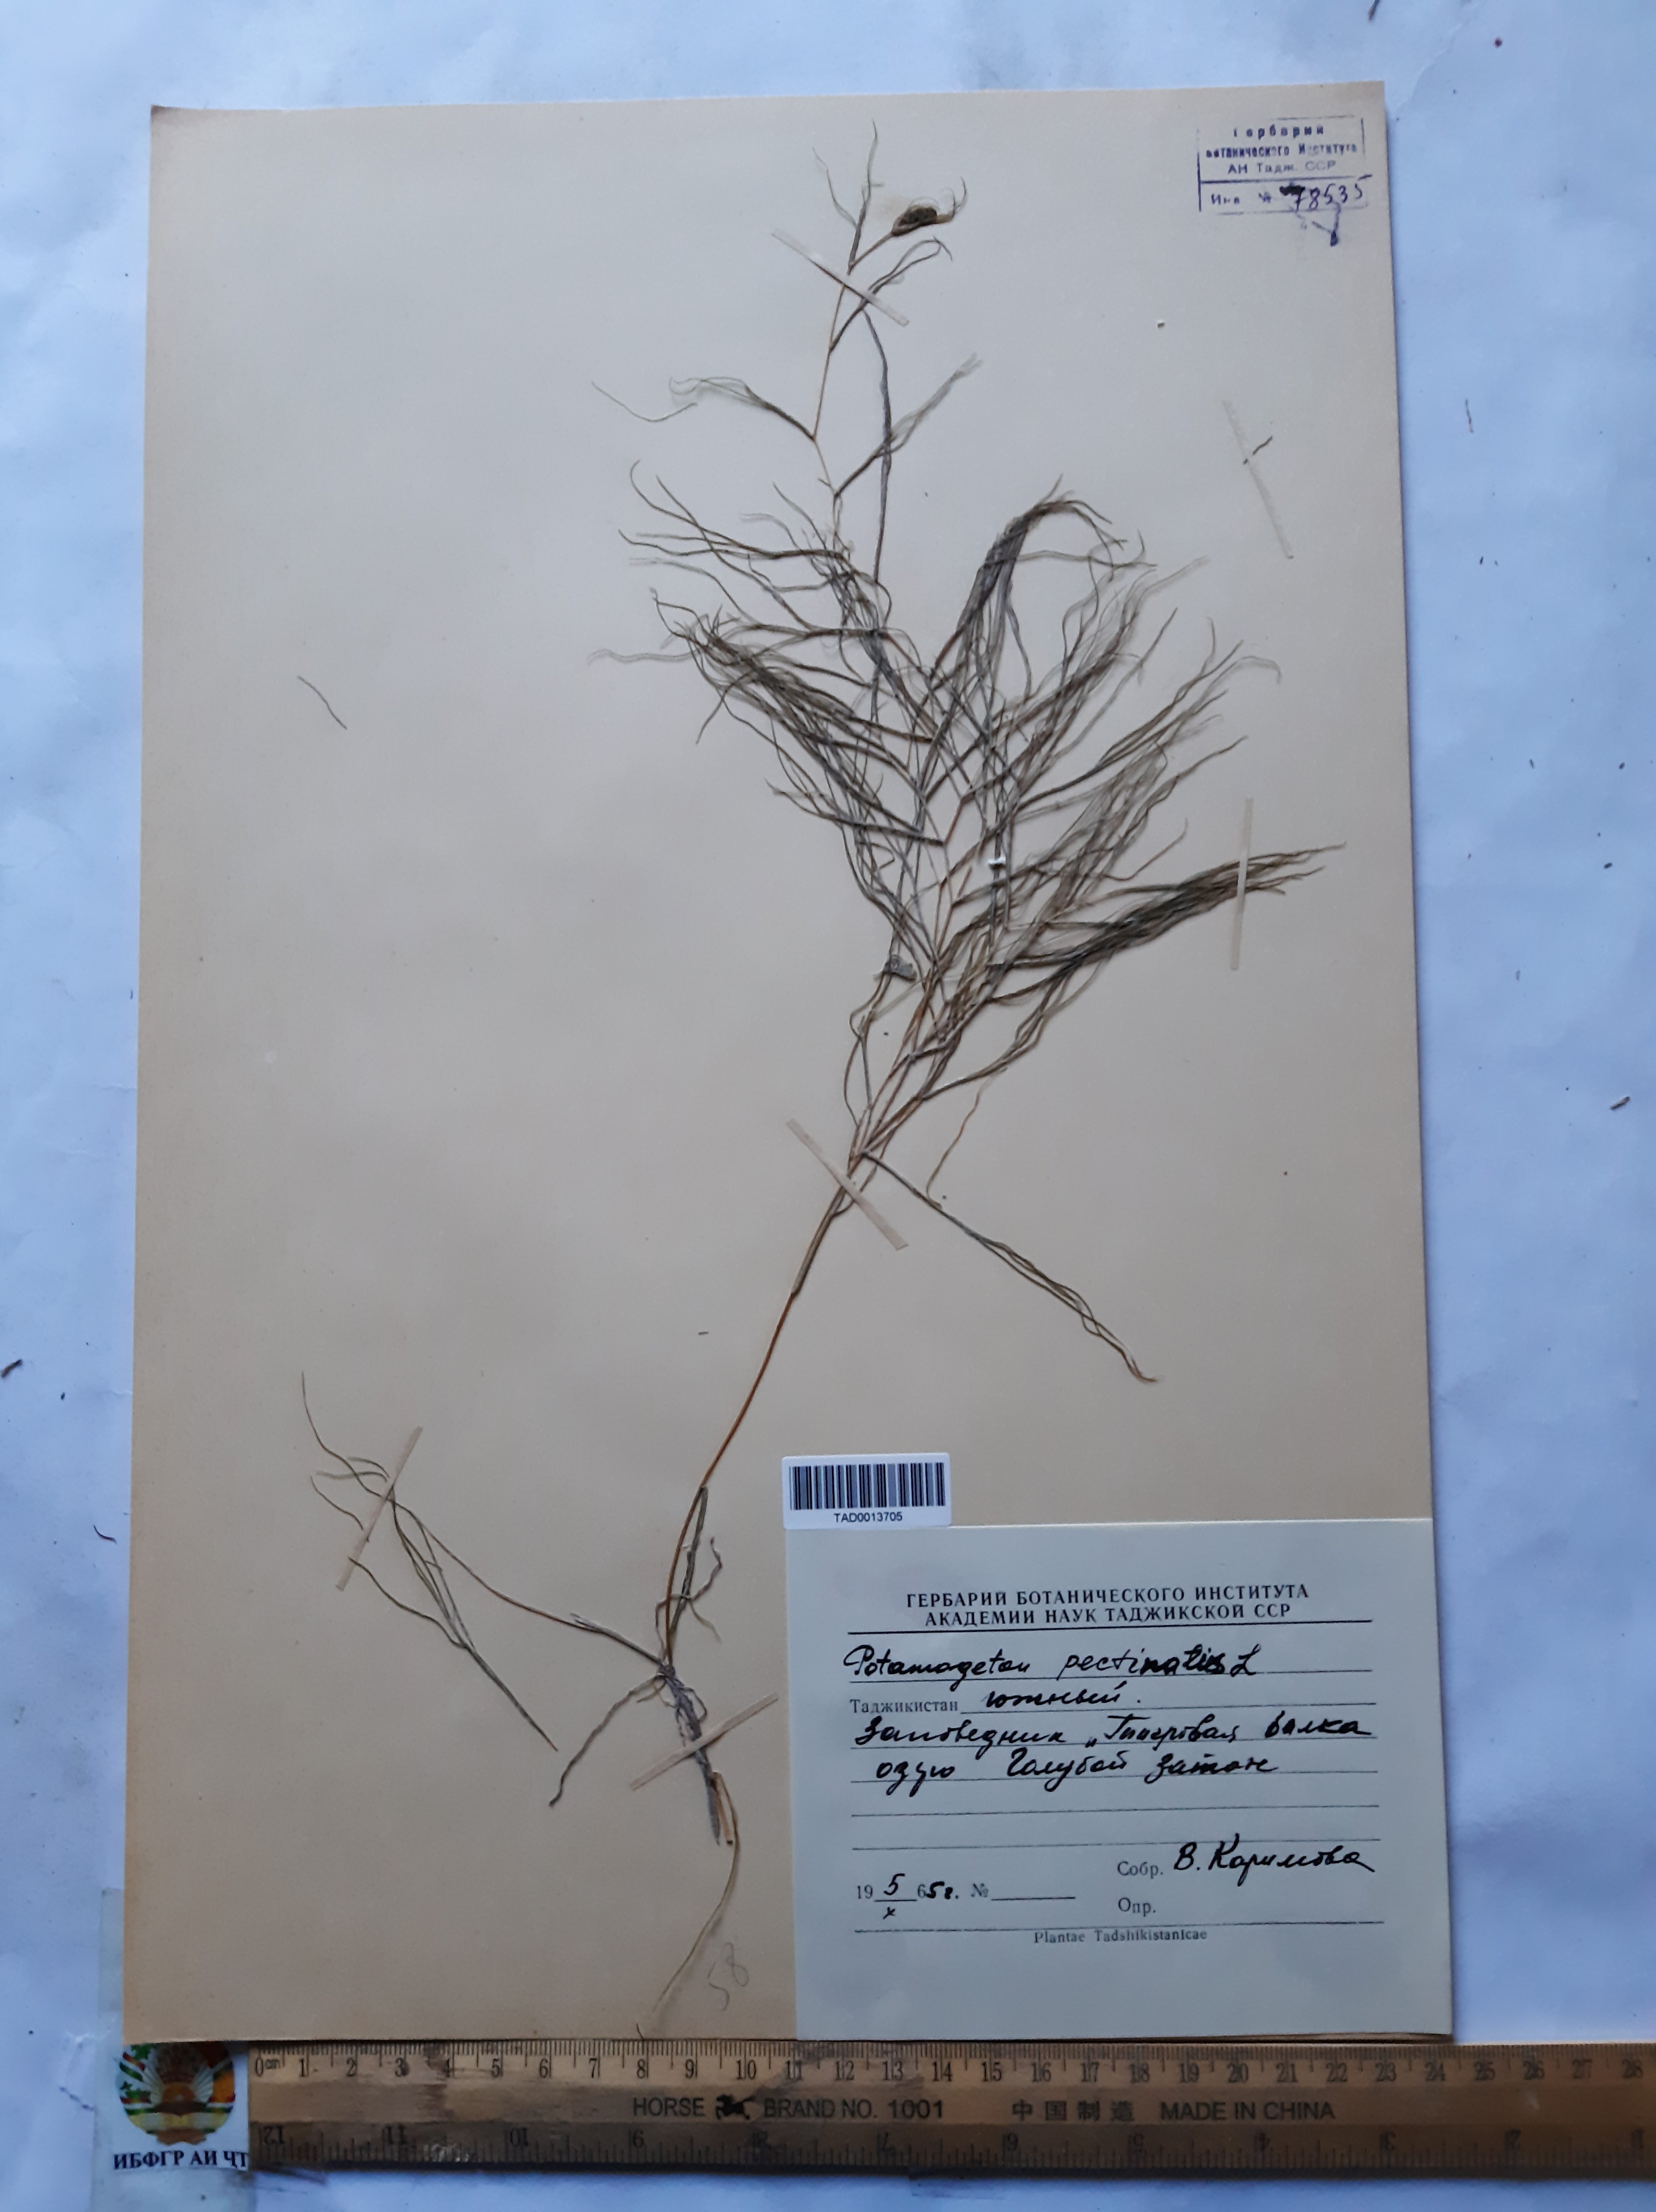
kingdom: Plantae
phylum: Tracheophyta
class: Liliopsida
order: Alismatales
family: Potamogetonaceae
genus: Stuckenia
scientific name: Stuckenia pectinata
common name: Sago pondweed
